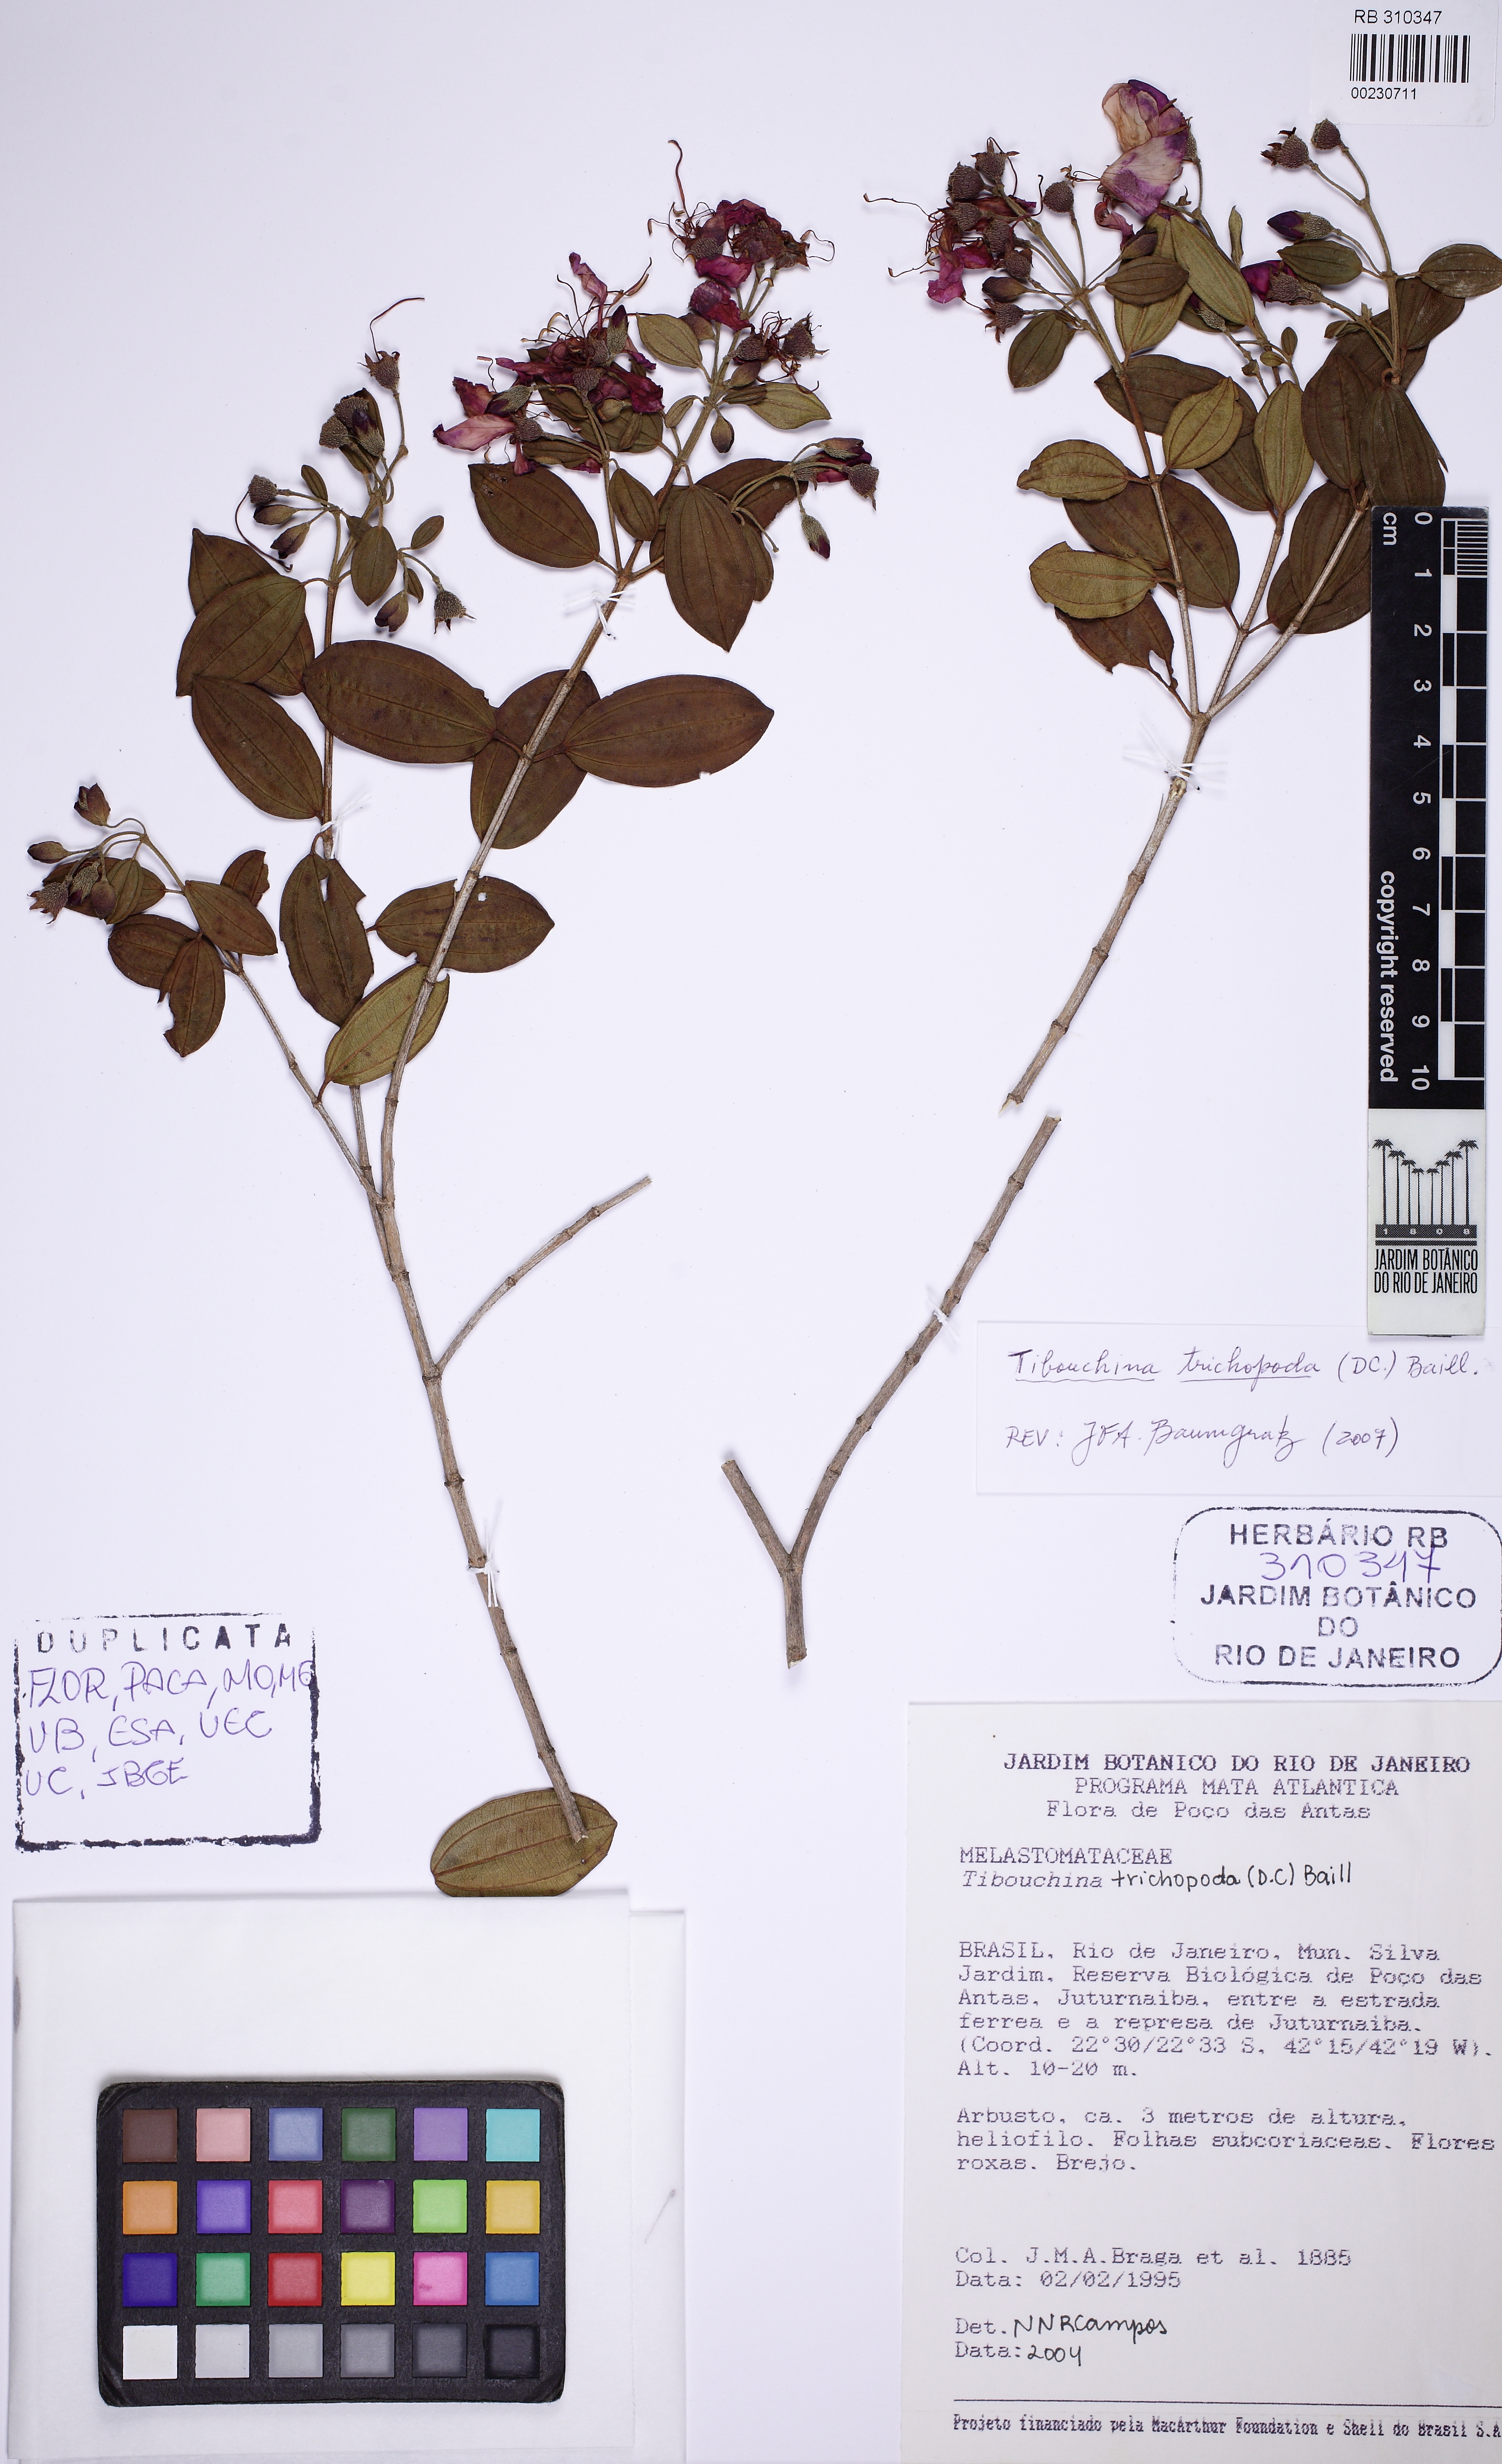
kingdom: Plantae
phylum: Tracheophyta
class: Magnoliopsida
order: Myrtales
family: Melastomataceae
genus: Pleroma
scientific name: Pleroma trichopodum
